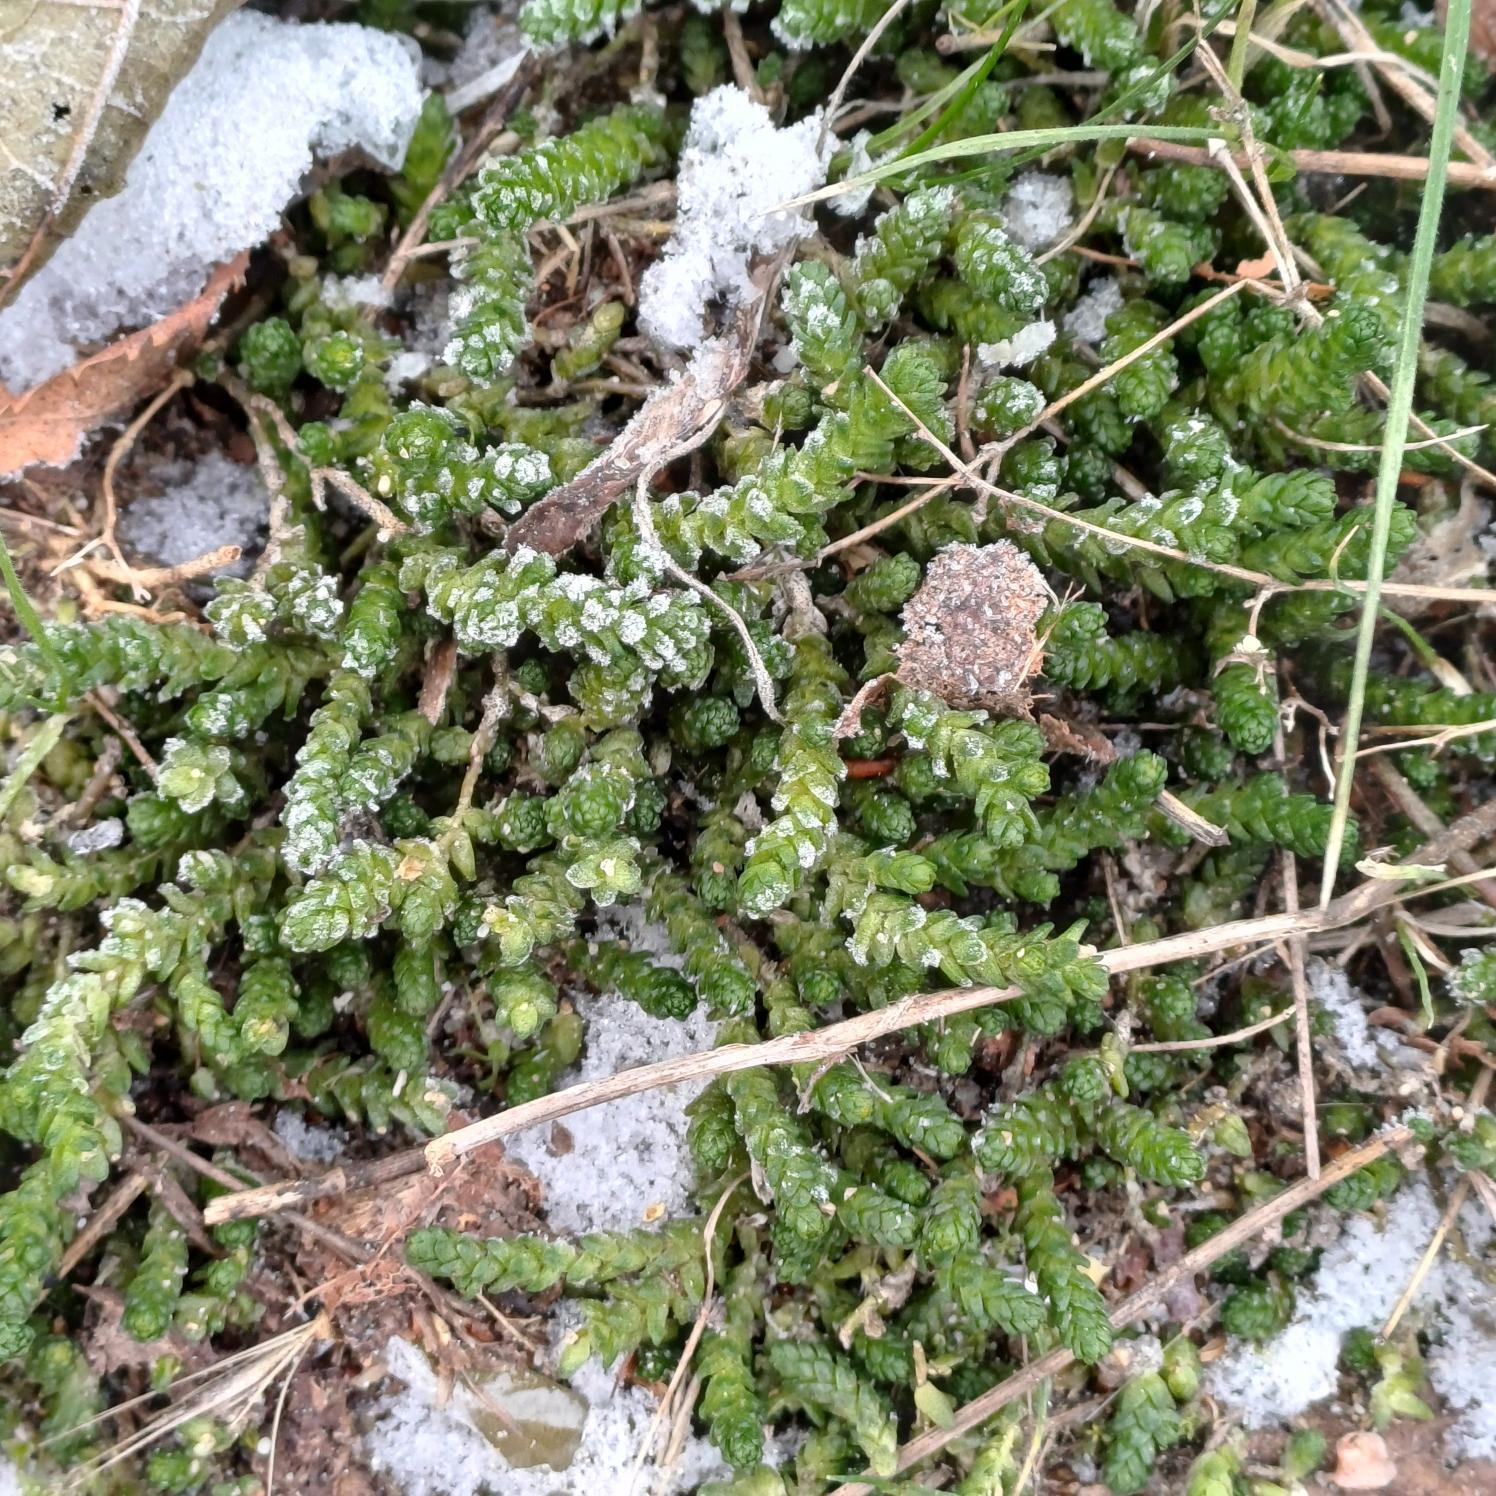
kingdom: Plantae
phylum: Tracheophyta
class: Magnoliopsida
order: Saxifragales
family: Crassulaceae
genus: Sedum
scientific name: Sedum acre
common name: Bidende stenurt
